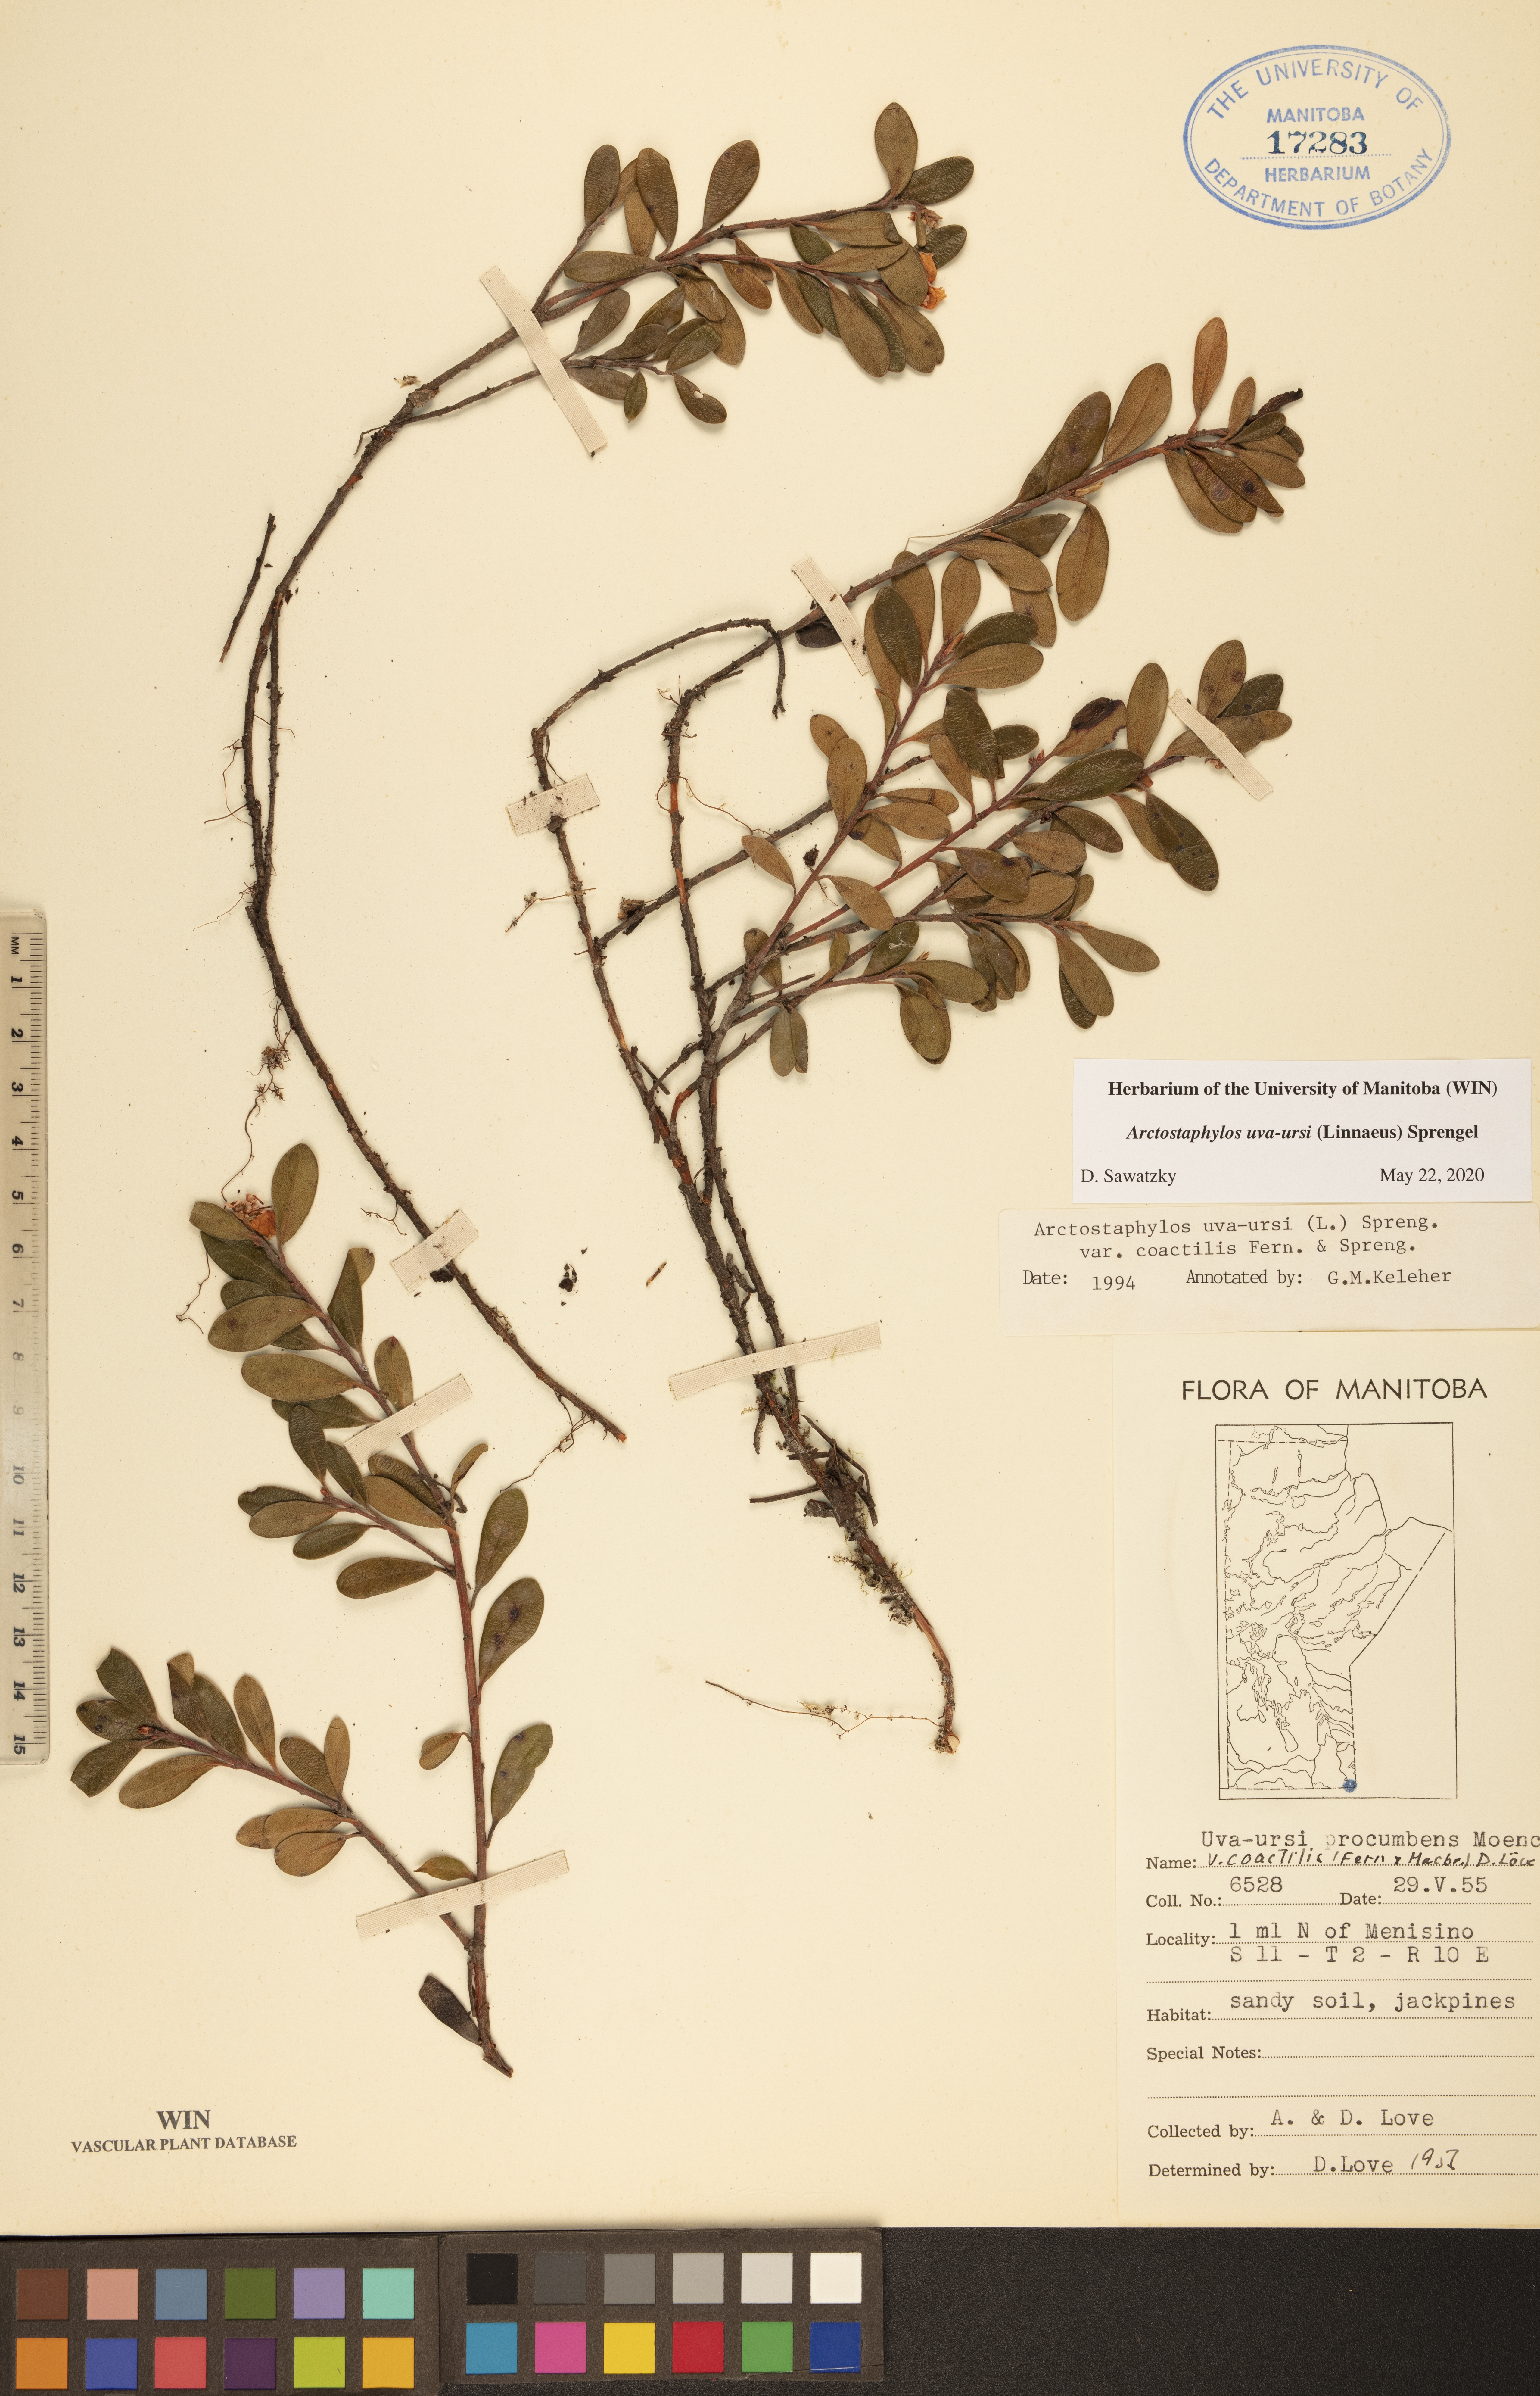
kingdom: Plantae
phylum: Tracheophyta
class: Magnoliopsida
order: Ericales
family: Ericaceae
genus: Arctostaphylos
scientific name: Arctostaphylos alpinus
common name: Alpine bearberry
